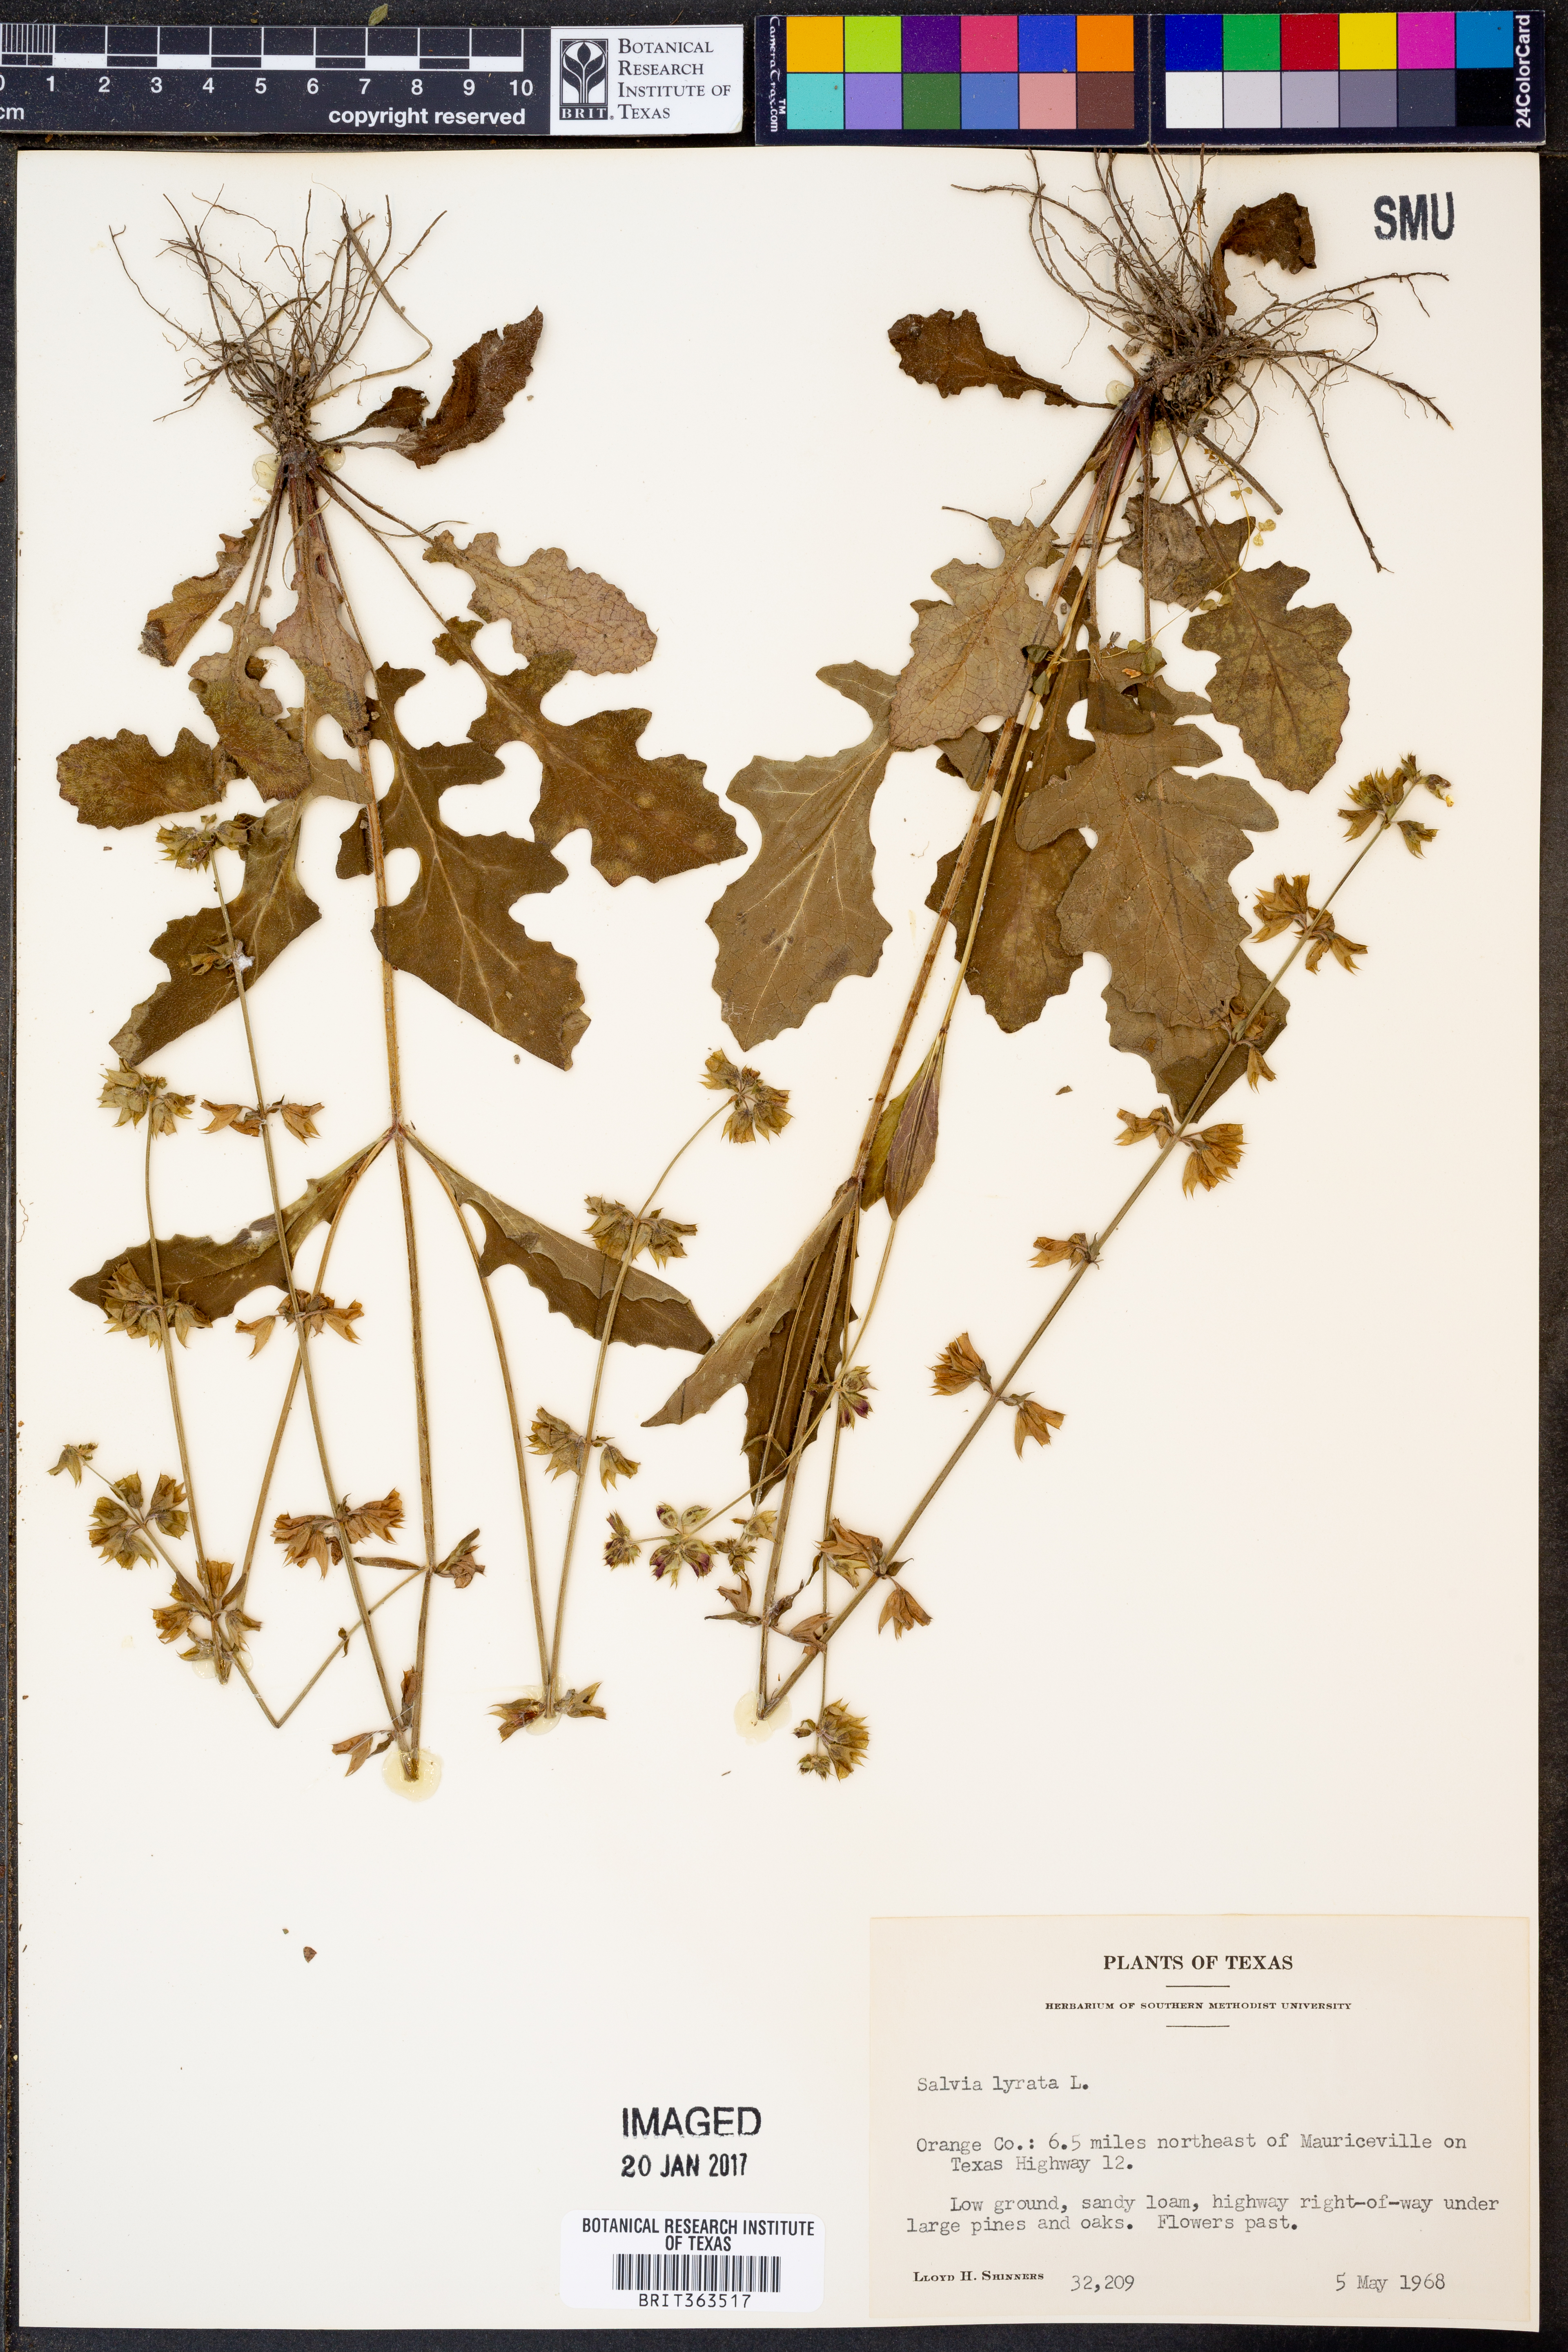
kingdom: Plantae
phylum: Tracheophyta
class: Magnoliopsida
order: Lamiales
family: Lamiaceae
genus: Salvia
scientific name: Salvia lyrata
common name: Cancerweed
